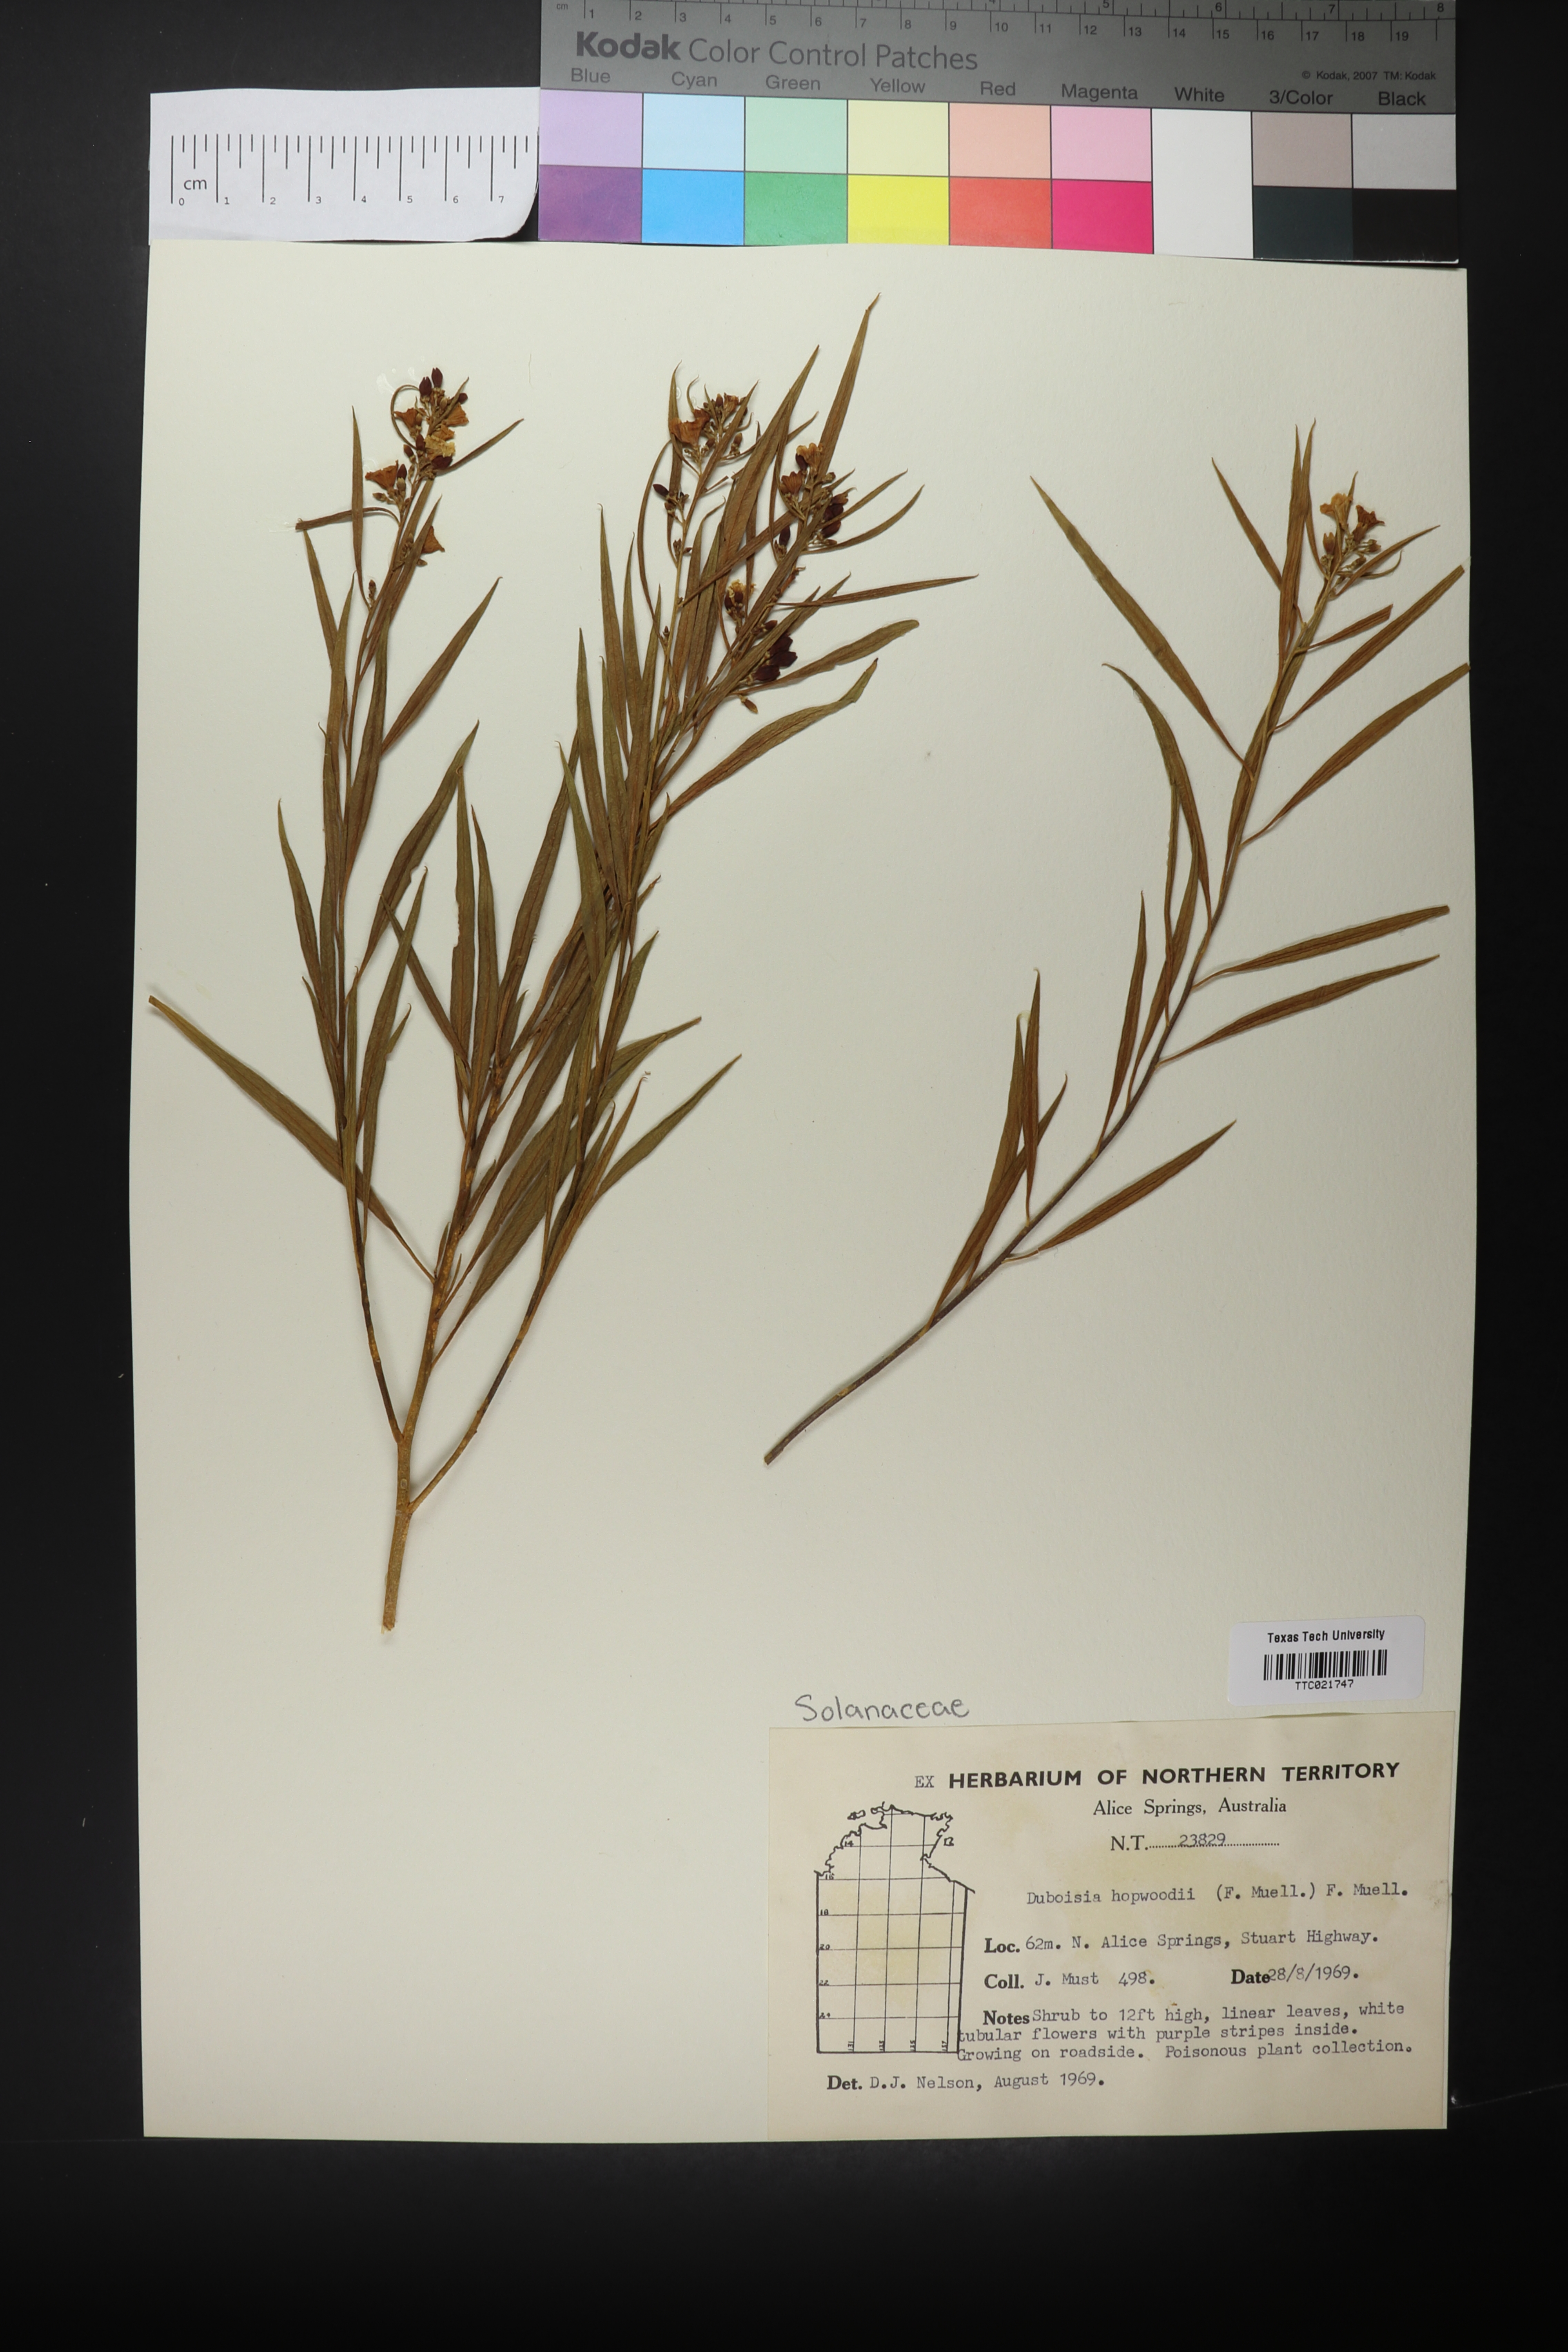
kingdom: Plantae
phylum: Tracheophyta
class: Magnoliopsida
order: Solanales
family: Solanaceae
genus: Duboisia
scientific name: Duboisia hopwoodii
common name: Pituri
